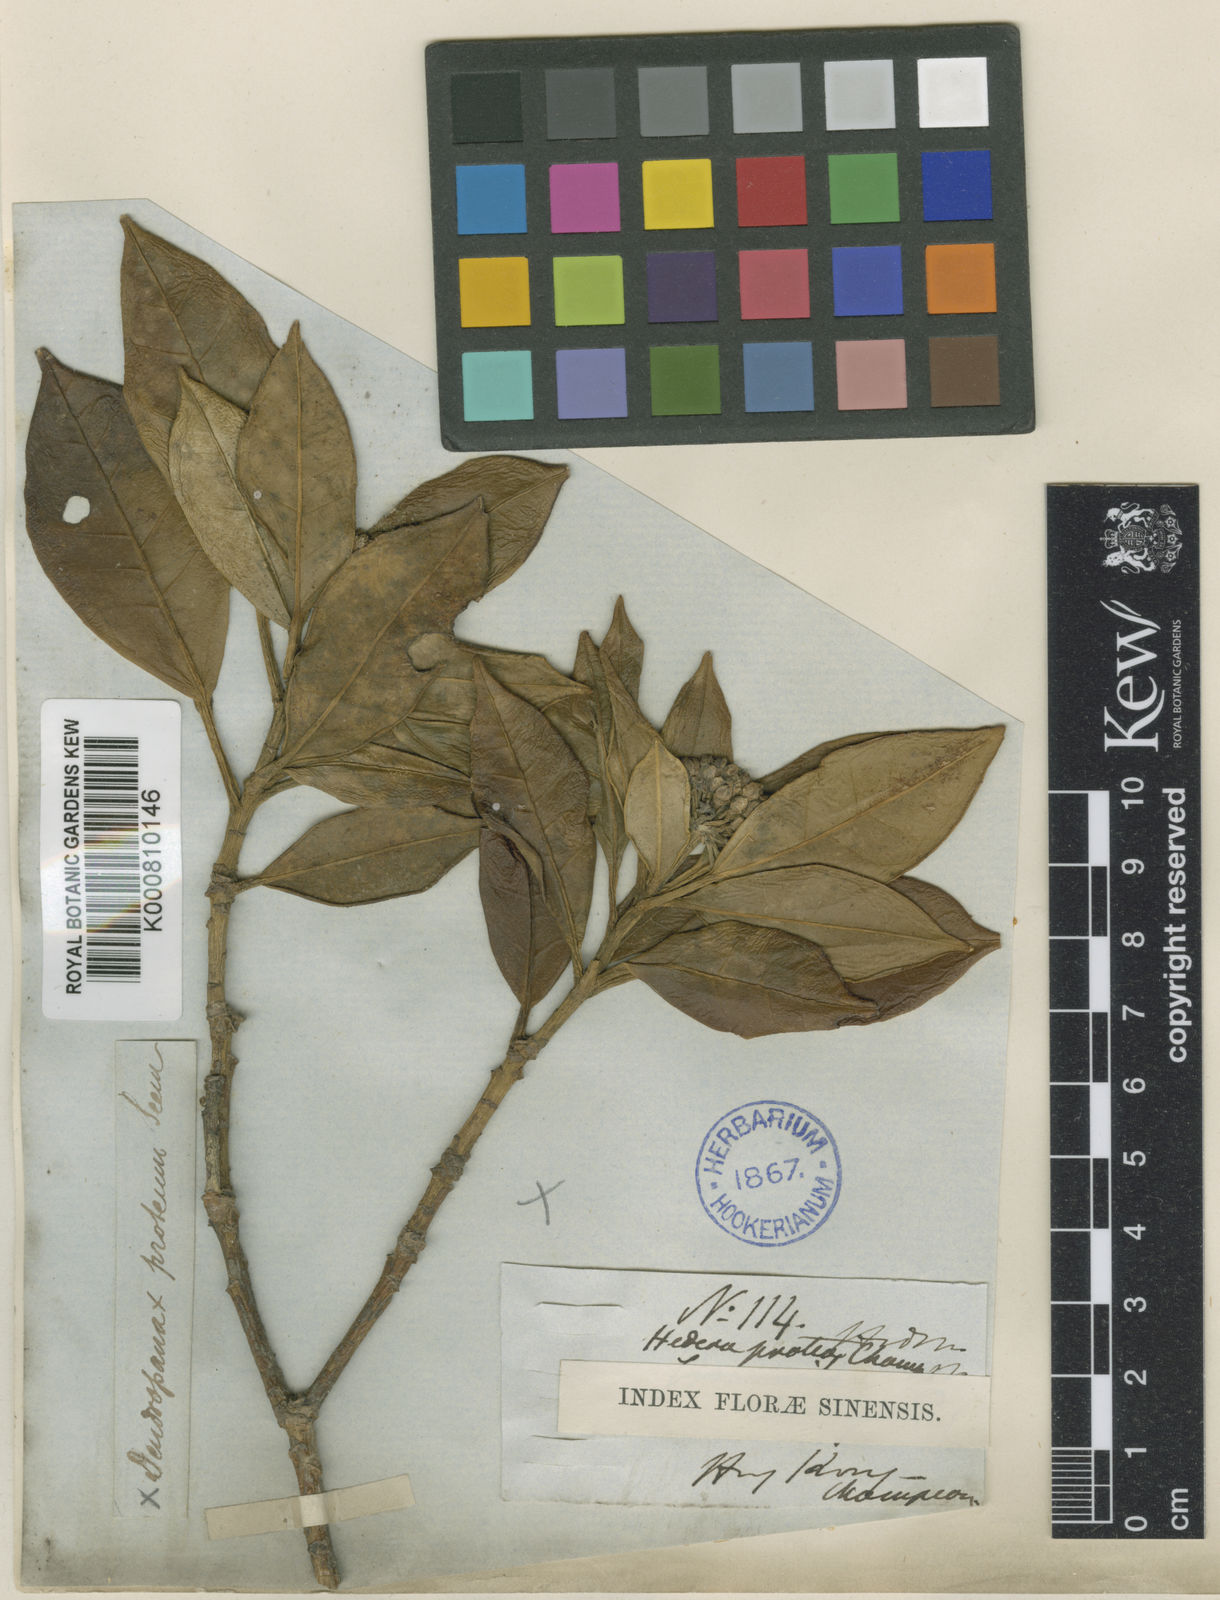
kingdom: Plantae
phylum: Tracheophyta
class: Magnoliopsida
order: Apiales
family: Araliaceae
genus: Dendropanax
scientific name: Dendropanax proteus
